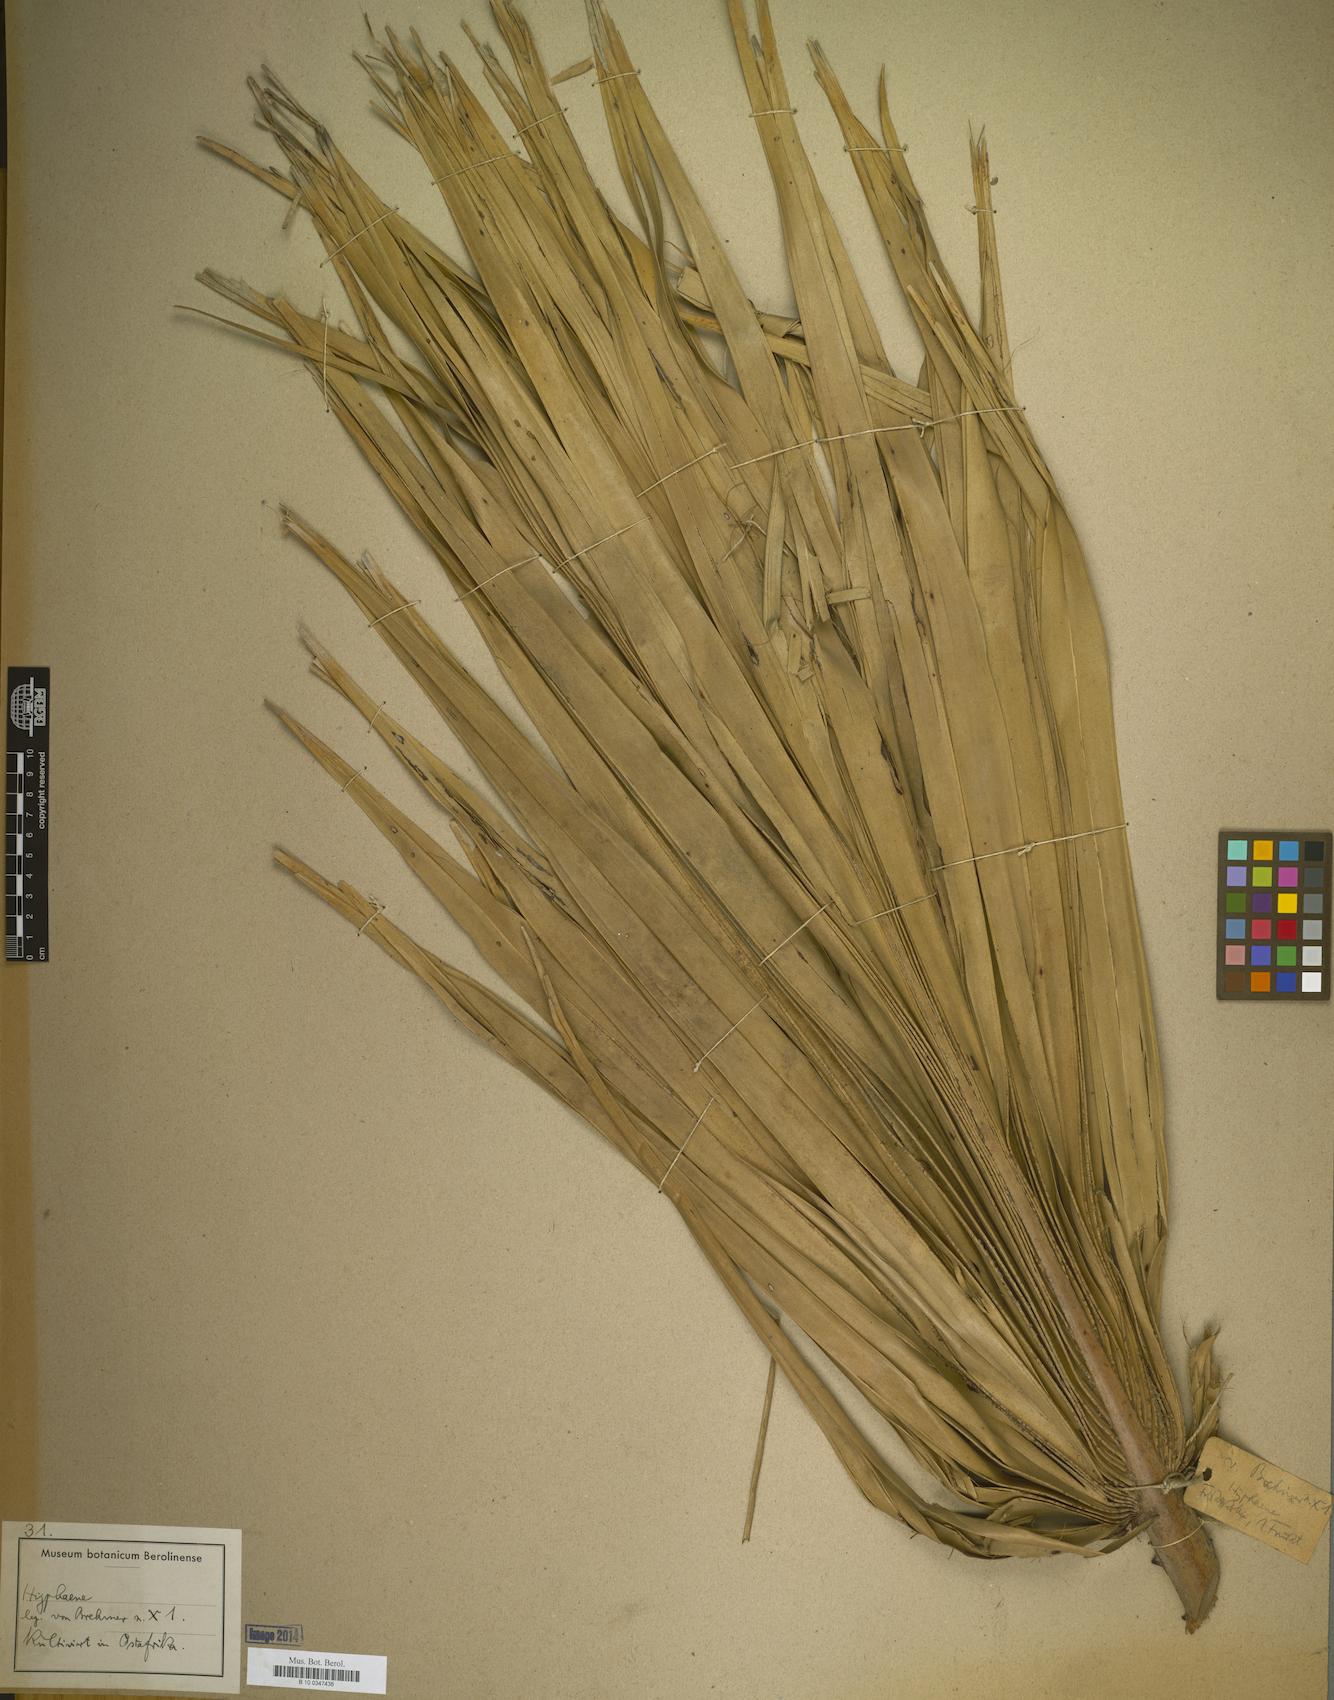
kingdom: Plantae
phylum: Tracheophyta
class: Liliopsida
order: Arecales
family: Arecaceae
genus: Hyphaene
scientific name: Hyphaene
